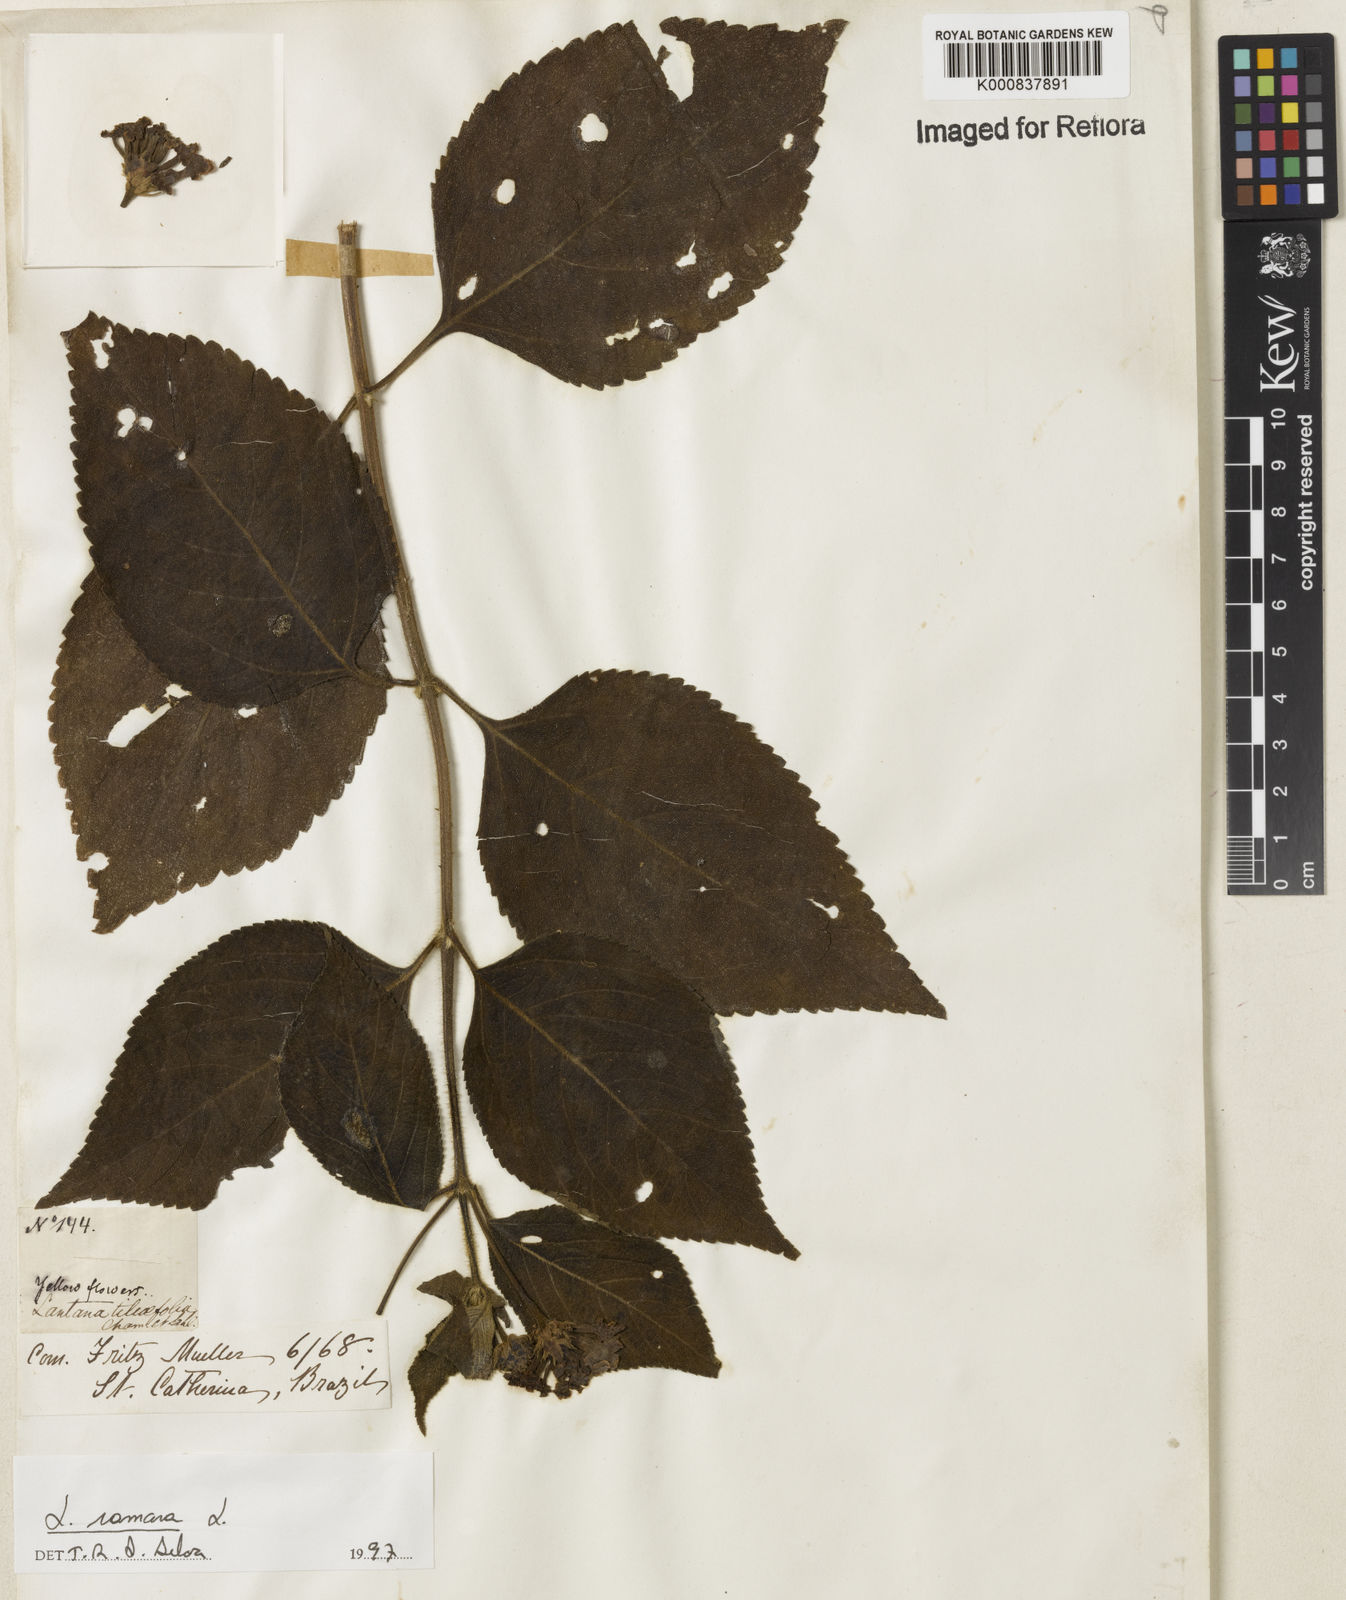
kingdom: Plantae
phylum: Tracheophyta
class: Magnoliopsida
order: Lamiales
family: Verbenaceae
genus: Lantana
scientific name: Lantana camara
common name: Lantana
